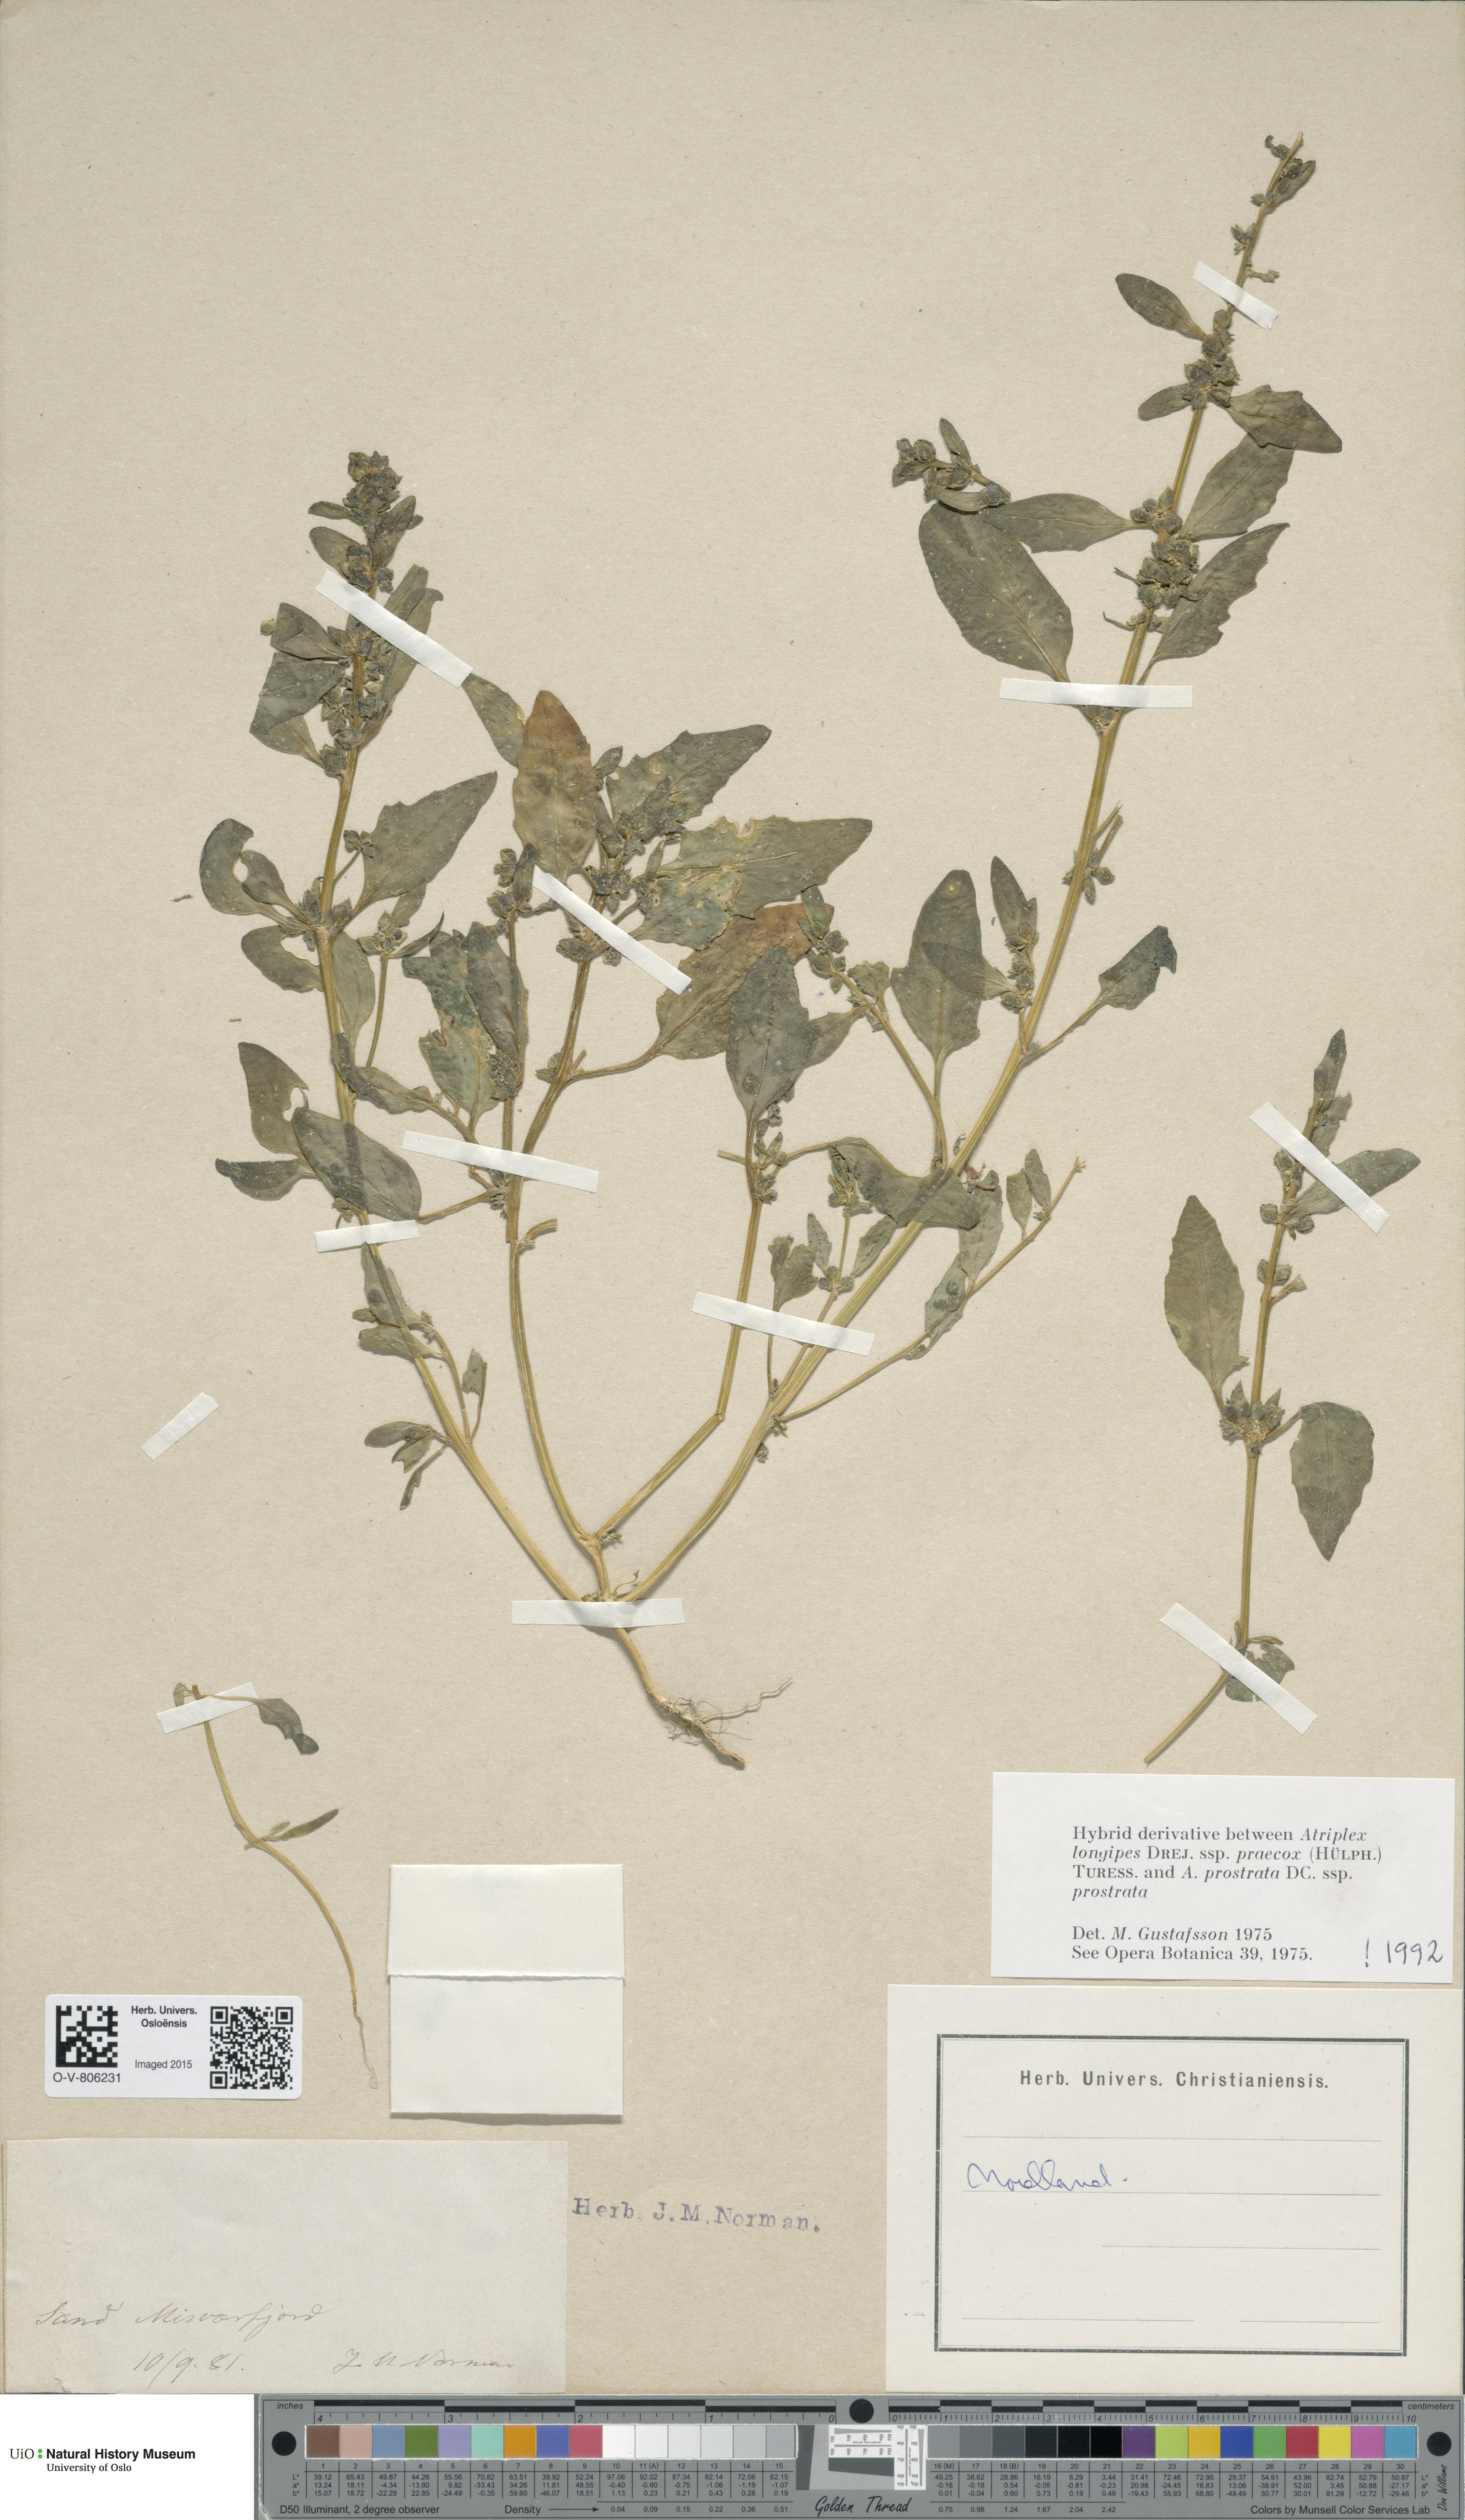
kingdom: Plantae
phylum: Tracheophyta
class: Magnoliopsida
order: Caryophyllales
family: Amaranthaceae
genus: Atriplex
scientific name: Atriplex
